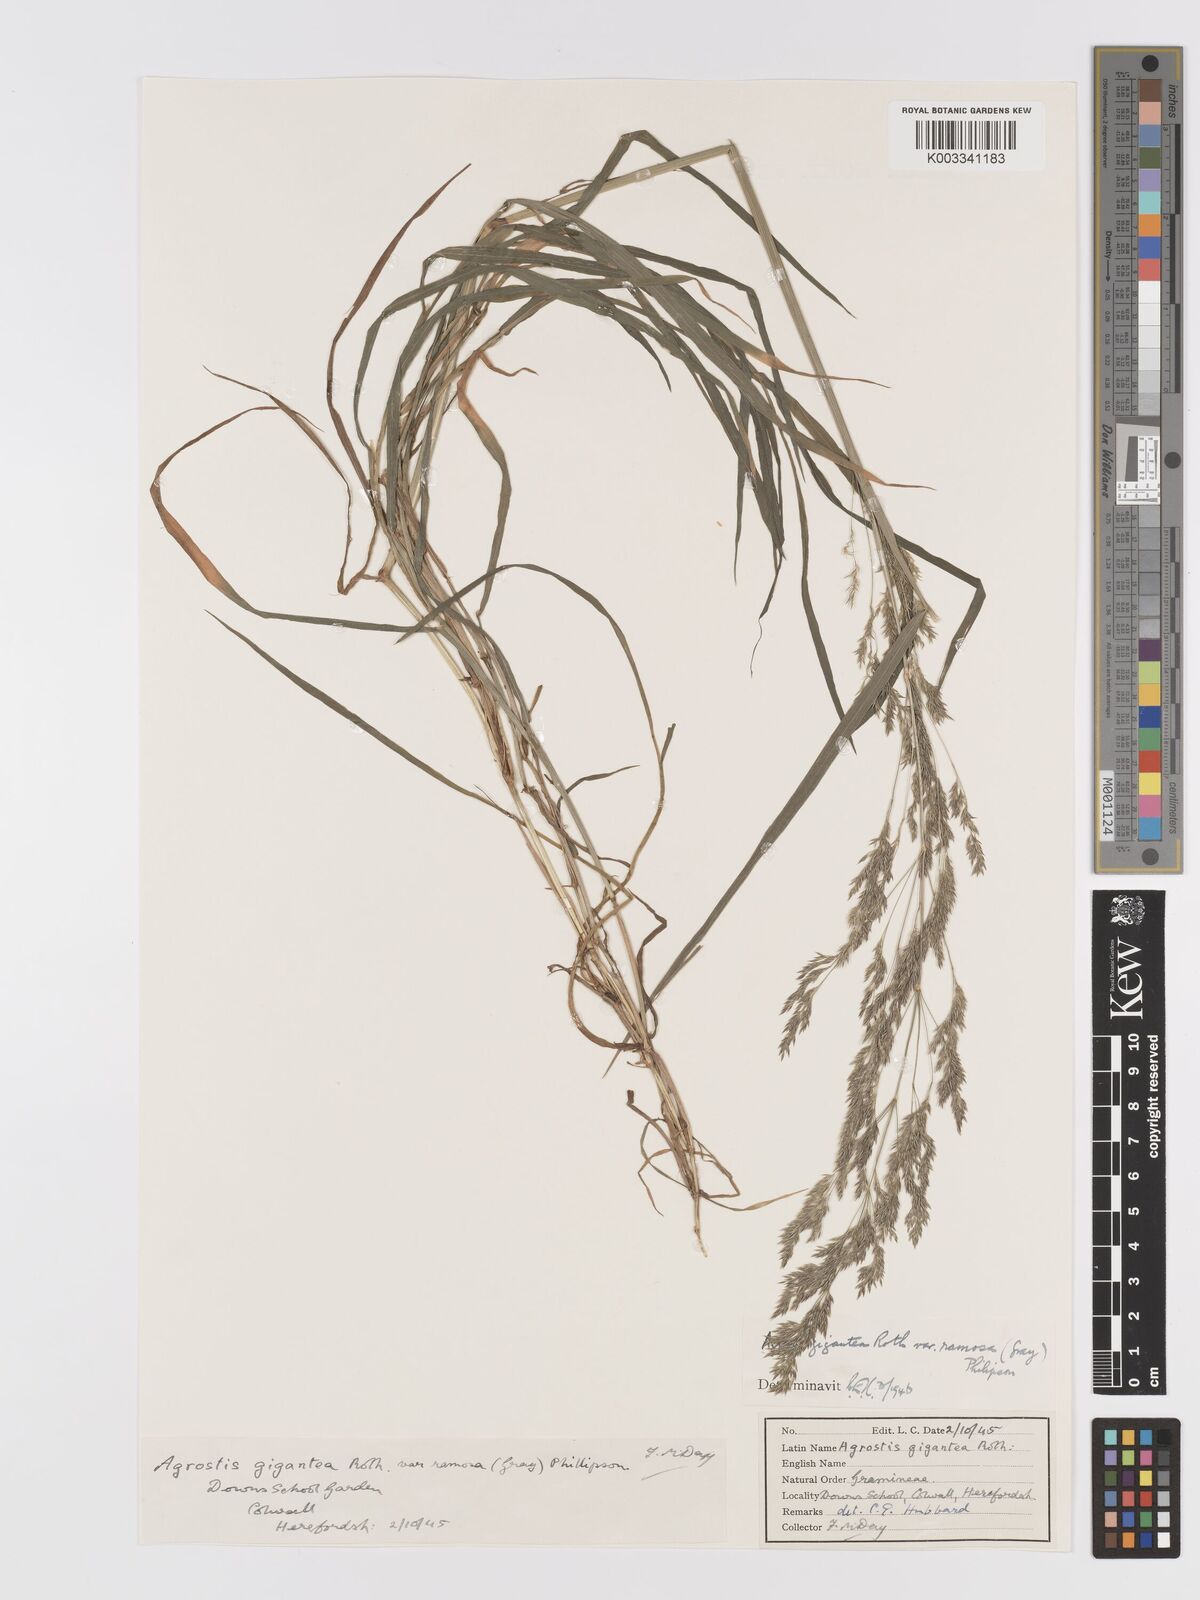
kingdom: Plantae
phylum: Tracheophyta
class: Liliopsida
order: Poales
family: Poaceae
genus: Agrostis
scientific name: Agrostis gigantea
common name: Black bent
